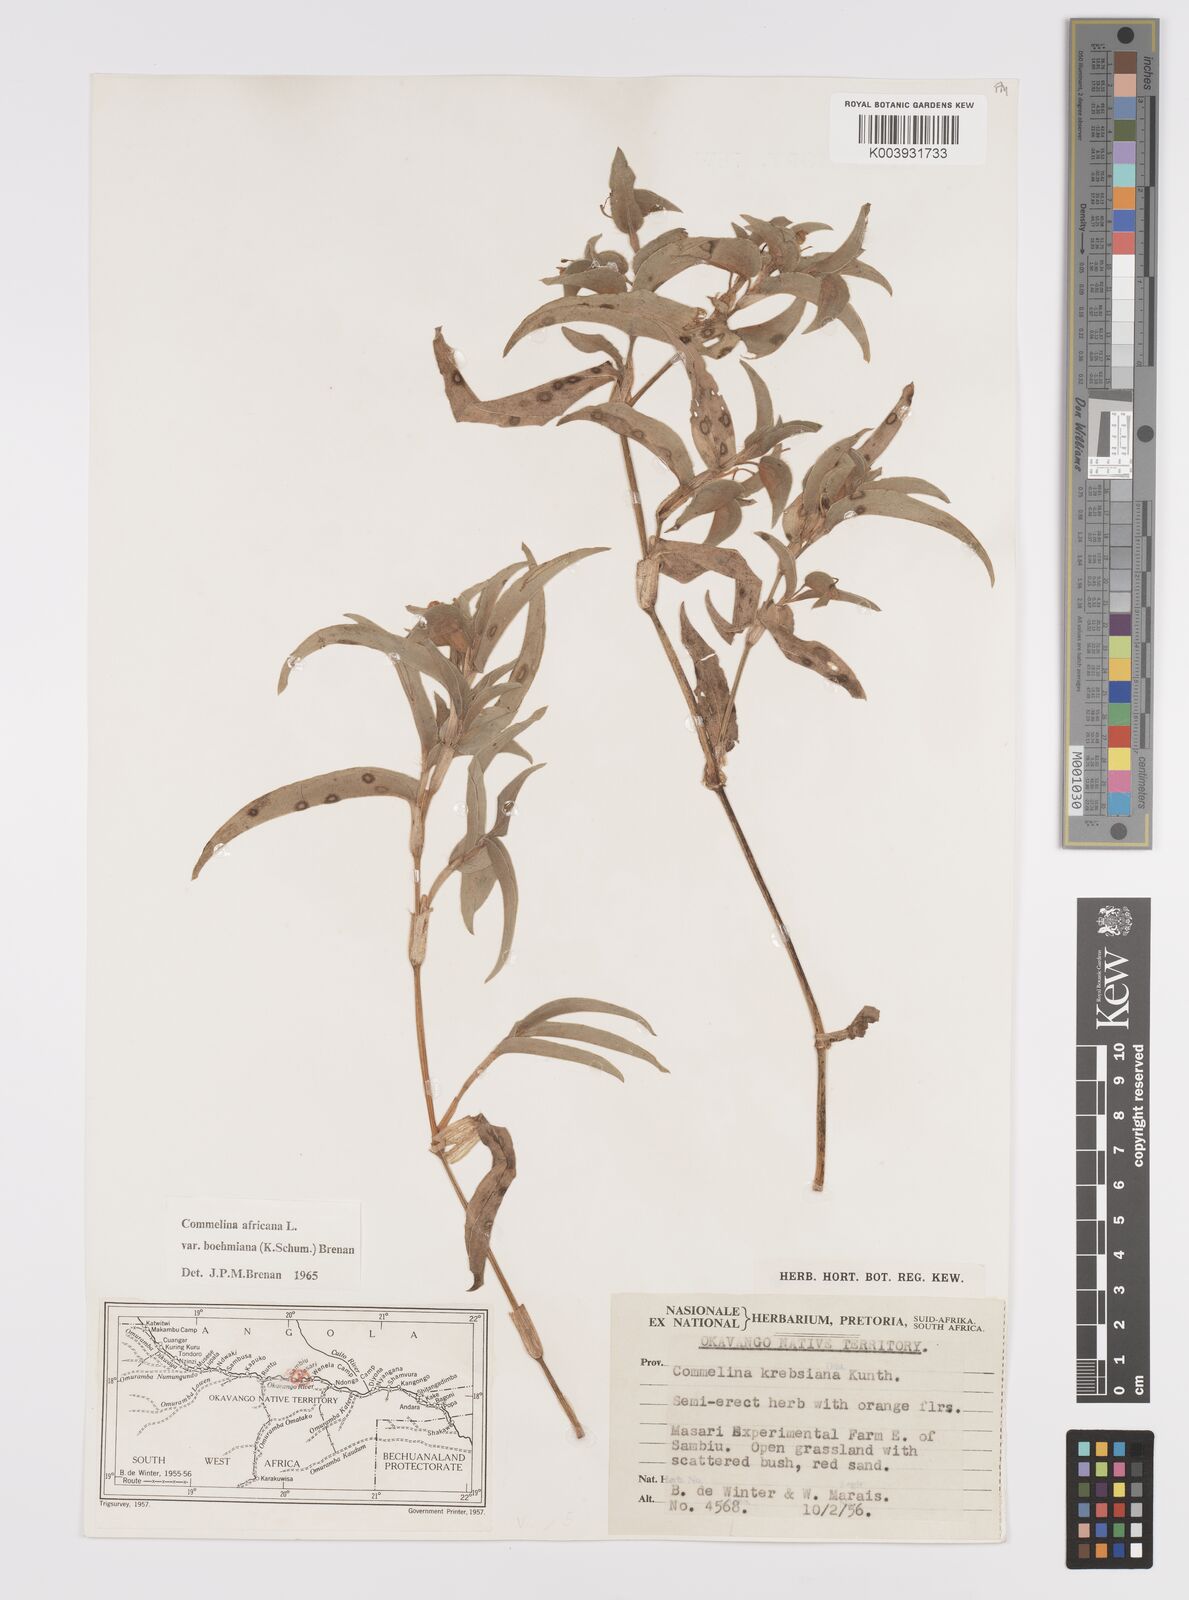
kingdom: Plantae
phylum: Tracheophyta
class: Liliopsida
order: Commelinales
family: Commelinaceae
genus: Commelina
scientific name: Commelina africana
